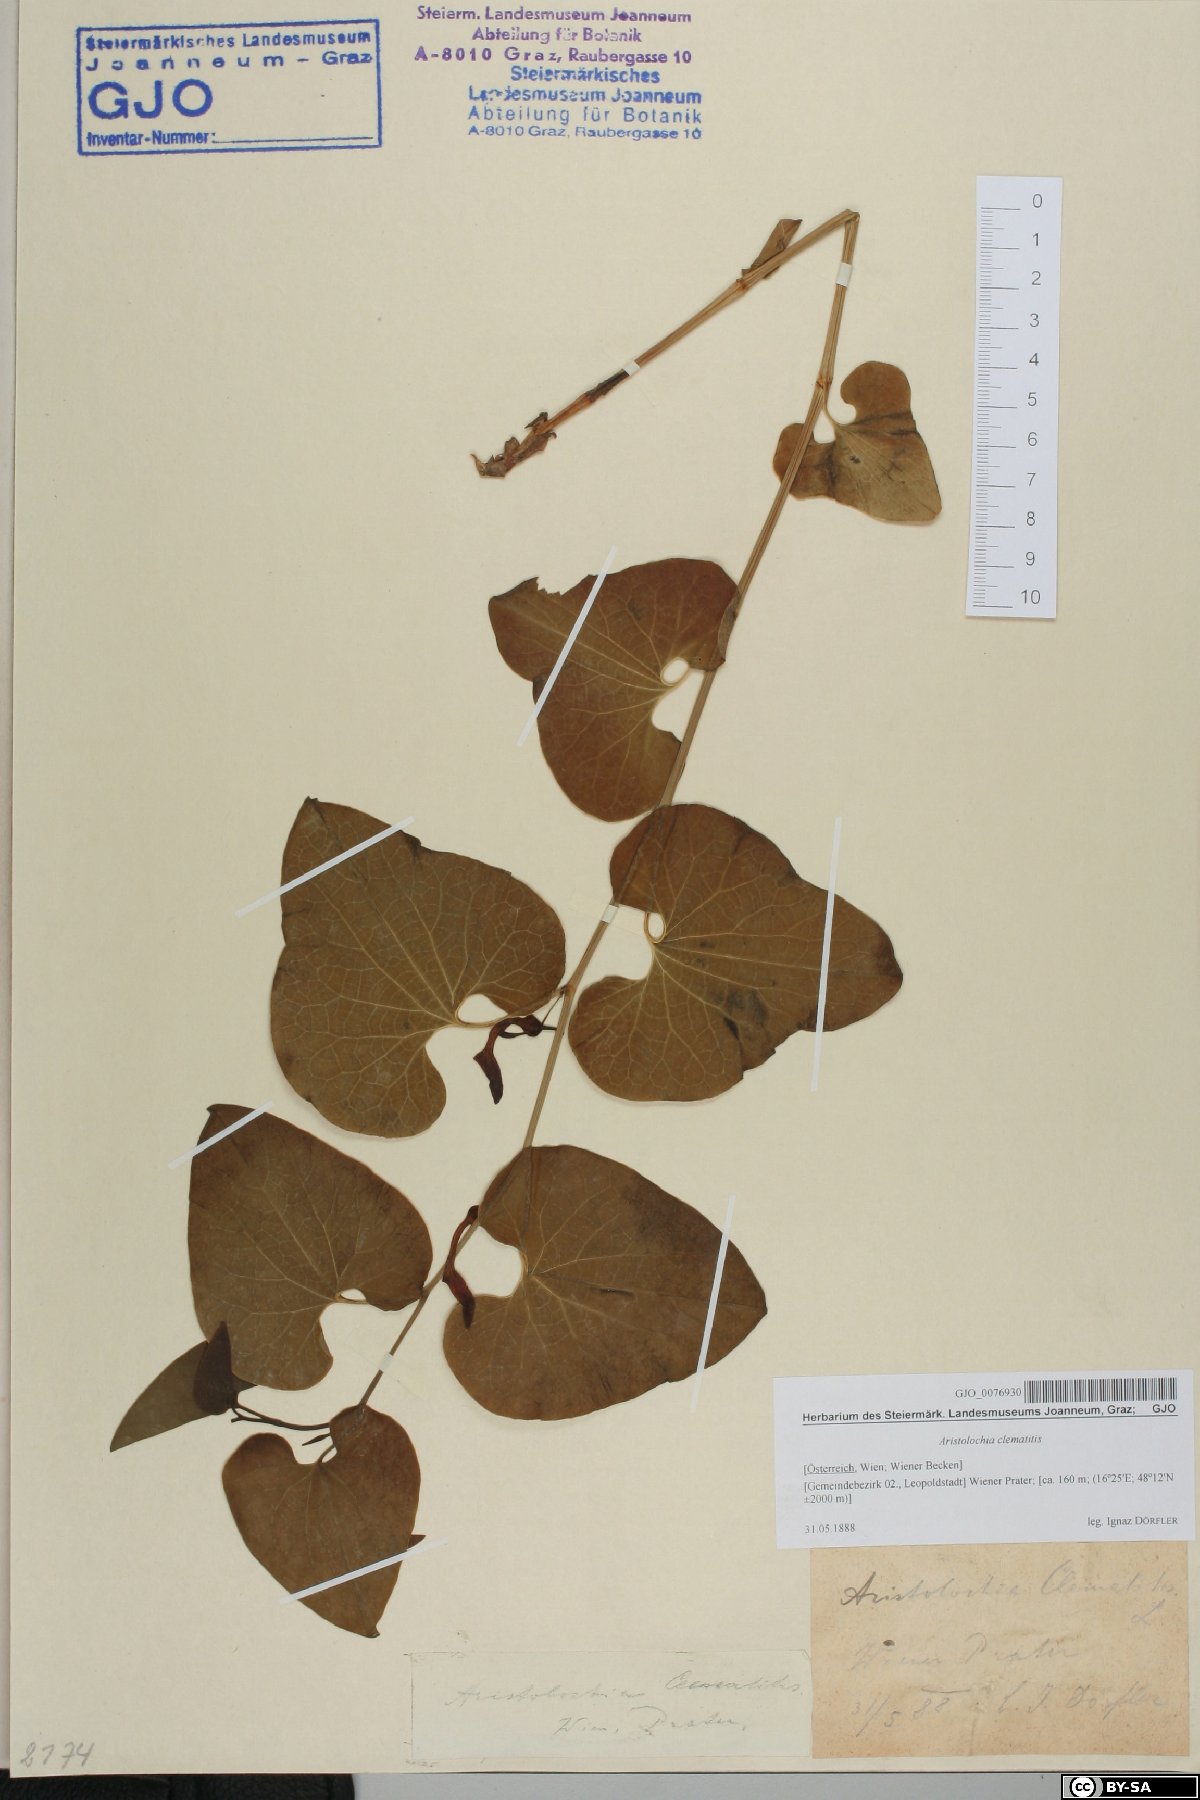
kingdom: Plantae
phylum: Tracheophyta
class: Magnoliopsida
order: Piperales
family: Aristolochiaceae
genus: Aristolochia
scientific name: Aristolochia clematitis
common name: Birthwort
